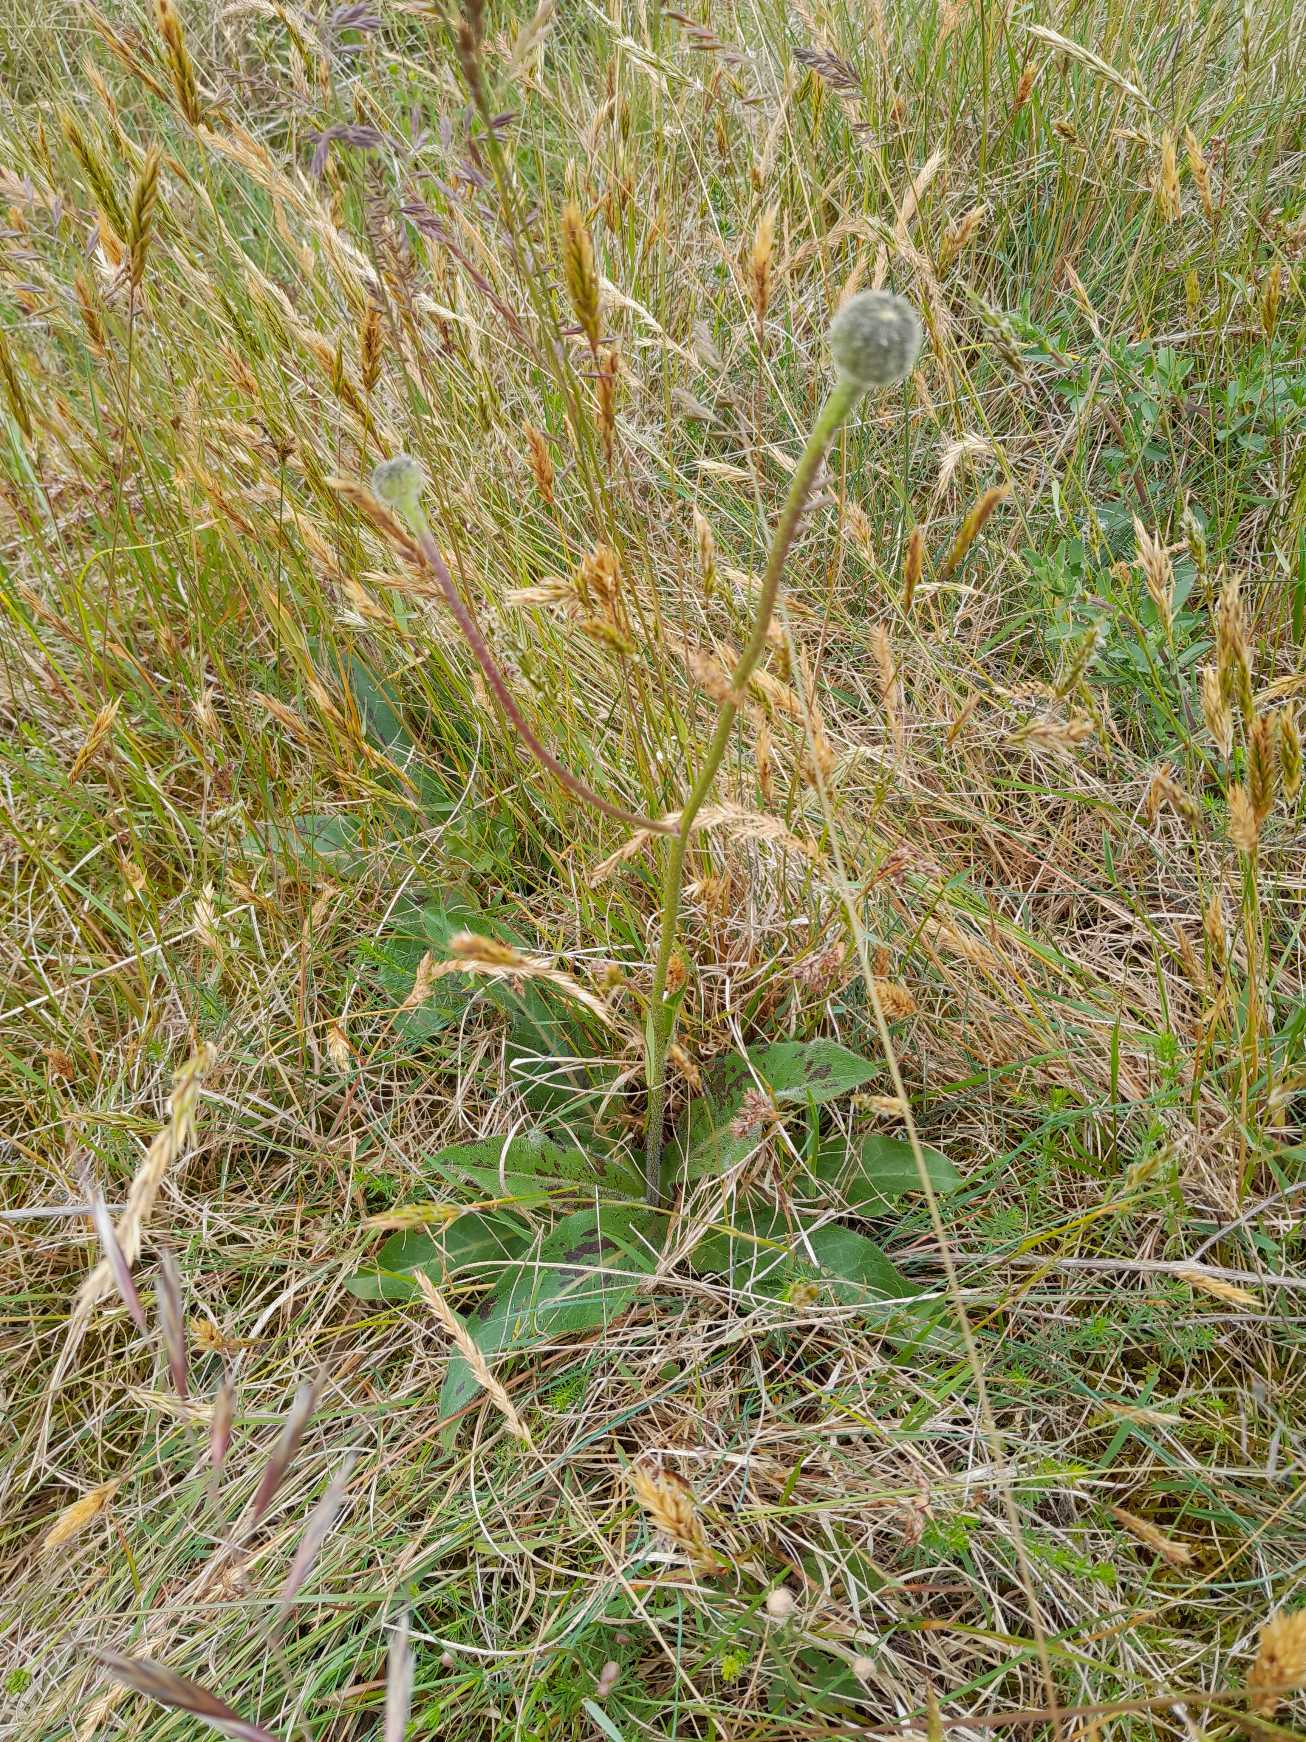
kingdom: Plantae
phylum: Tracheophyta
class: Magnoliopsida
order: Asterales
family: Asteraceae
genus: Trommsdorffia
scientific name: Trommsdorffia maculata
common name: Plettet kongepen
